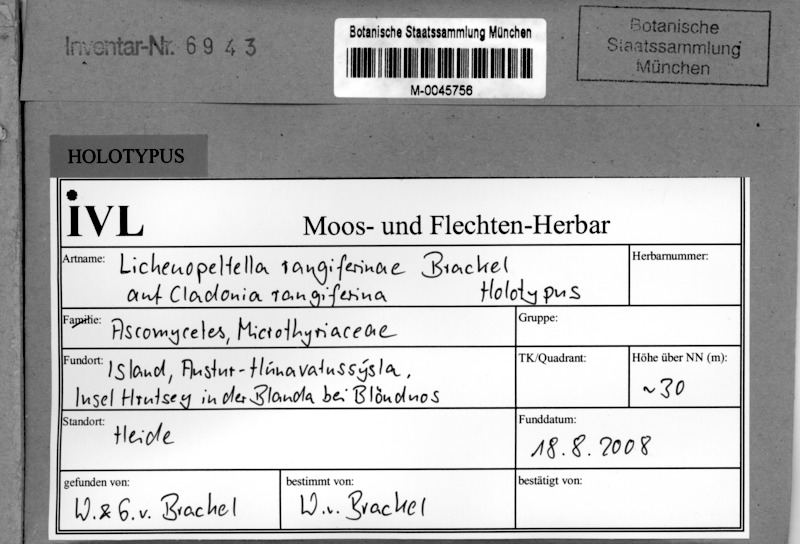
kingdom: Fungi
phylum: Ascomycota
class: Dothideomycetes
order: Microthyriales
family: Microthyriaceae
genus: Lichenopeltella
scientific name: Lichenopeltella rangiferinae
